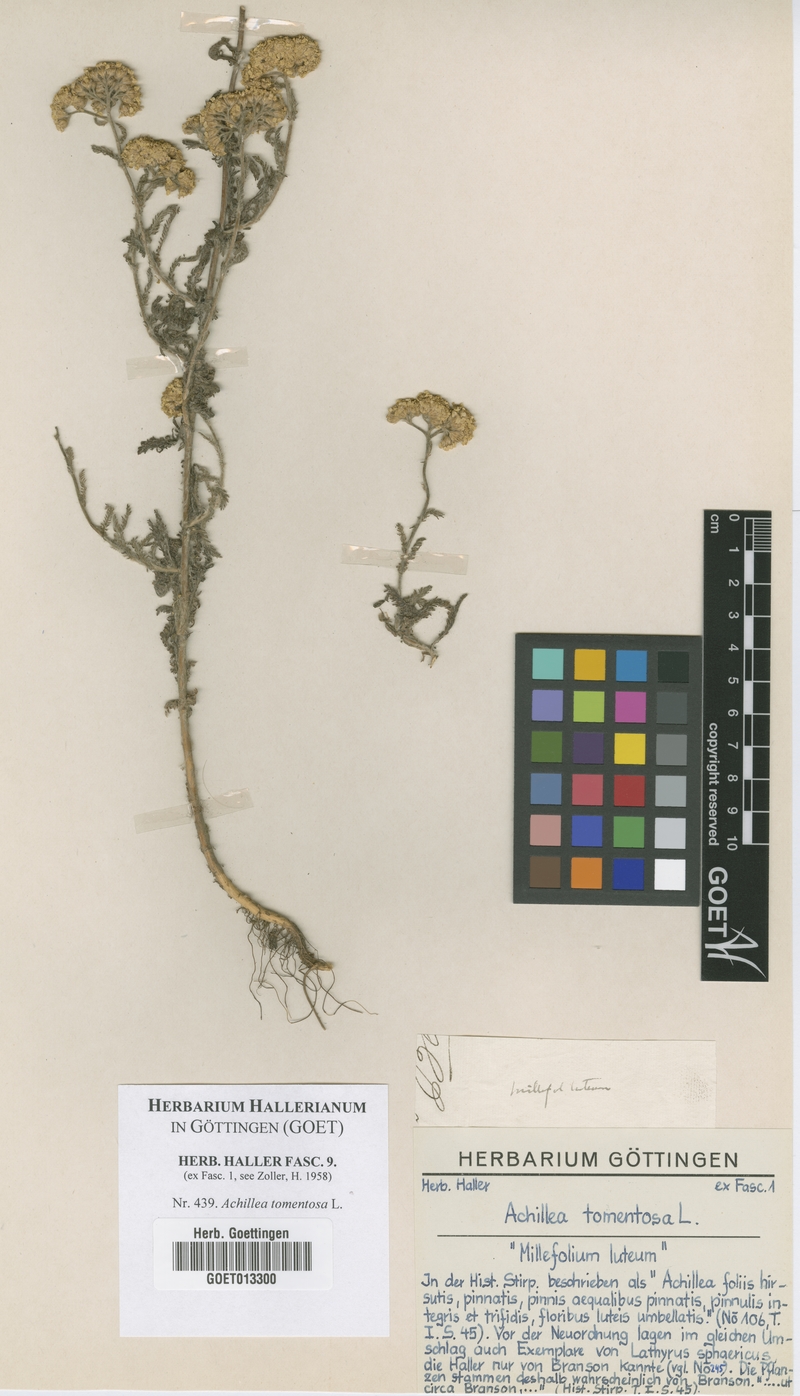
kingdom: Plantae
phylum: Tracheophyta
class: Magnoliopsida
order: Asterales
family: Asteraceae
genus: Achillea
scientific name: Achillea tomentosa
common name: Yellow milfoil
